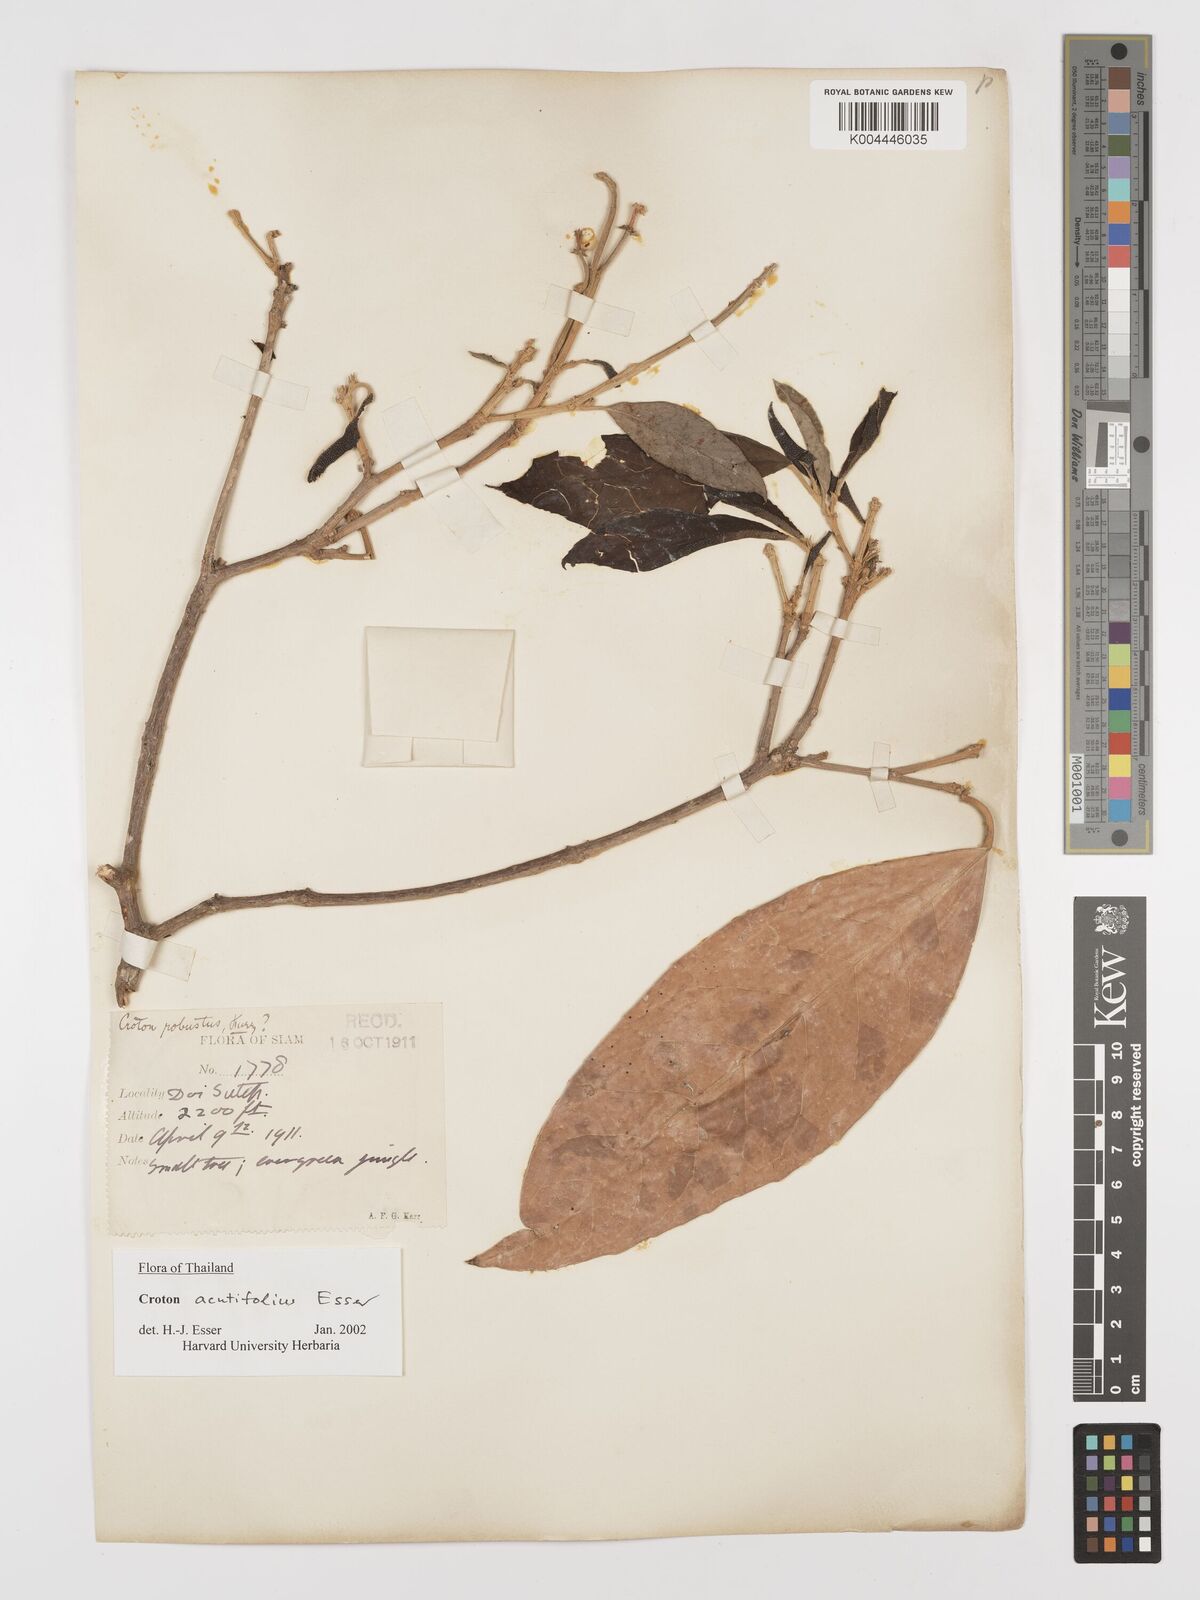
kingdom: Plantae
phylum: Tracheophyta
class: Magnoliopsida
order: Malpighiales
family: Euphorbiaceae
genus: Croton
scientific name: Croton acutifolius
